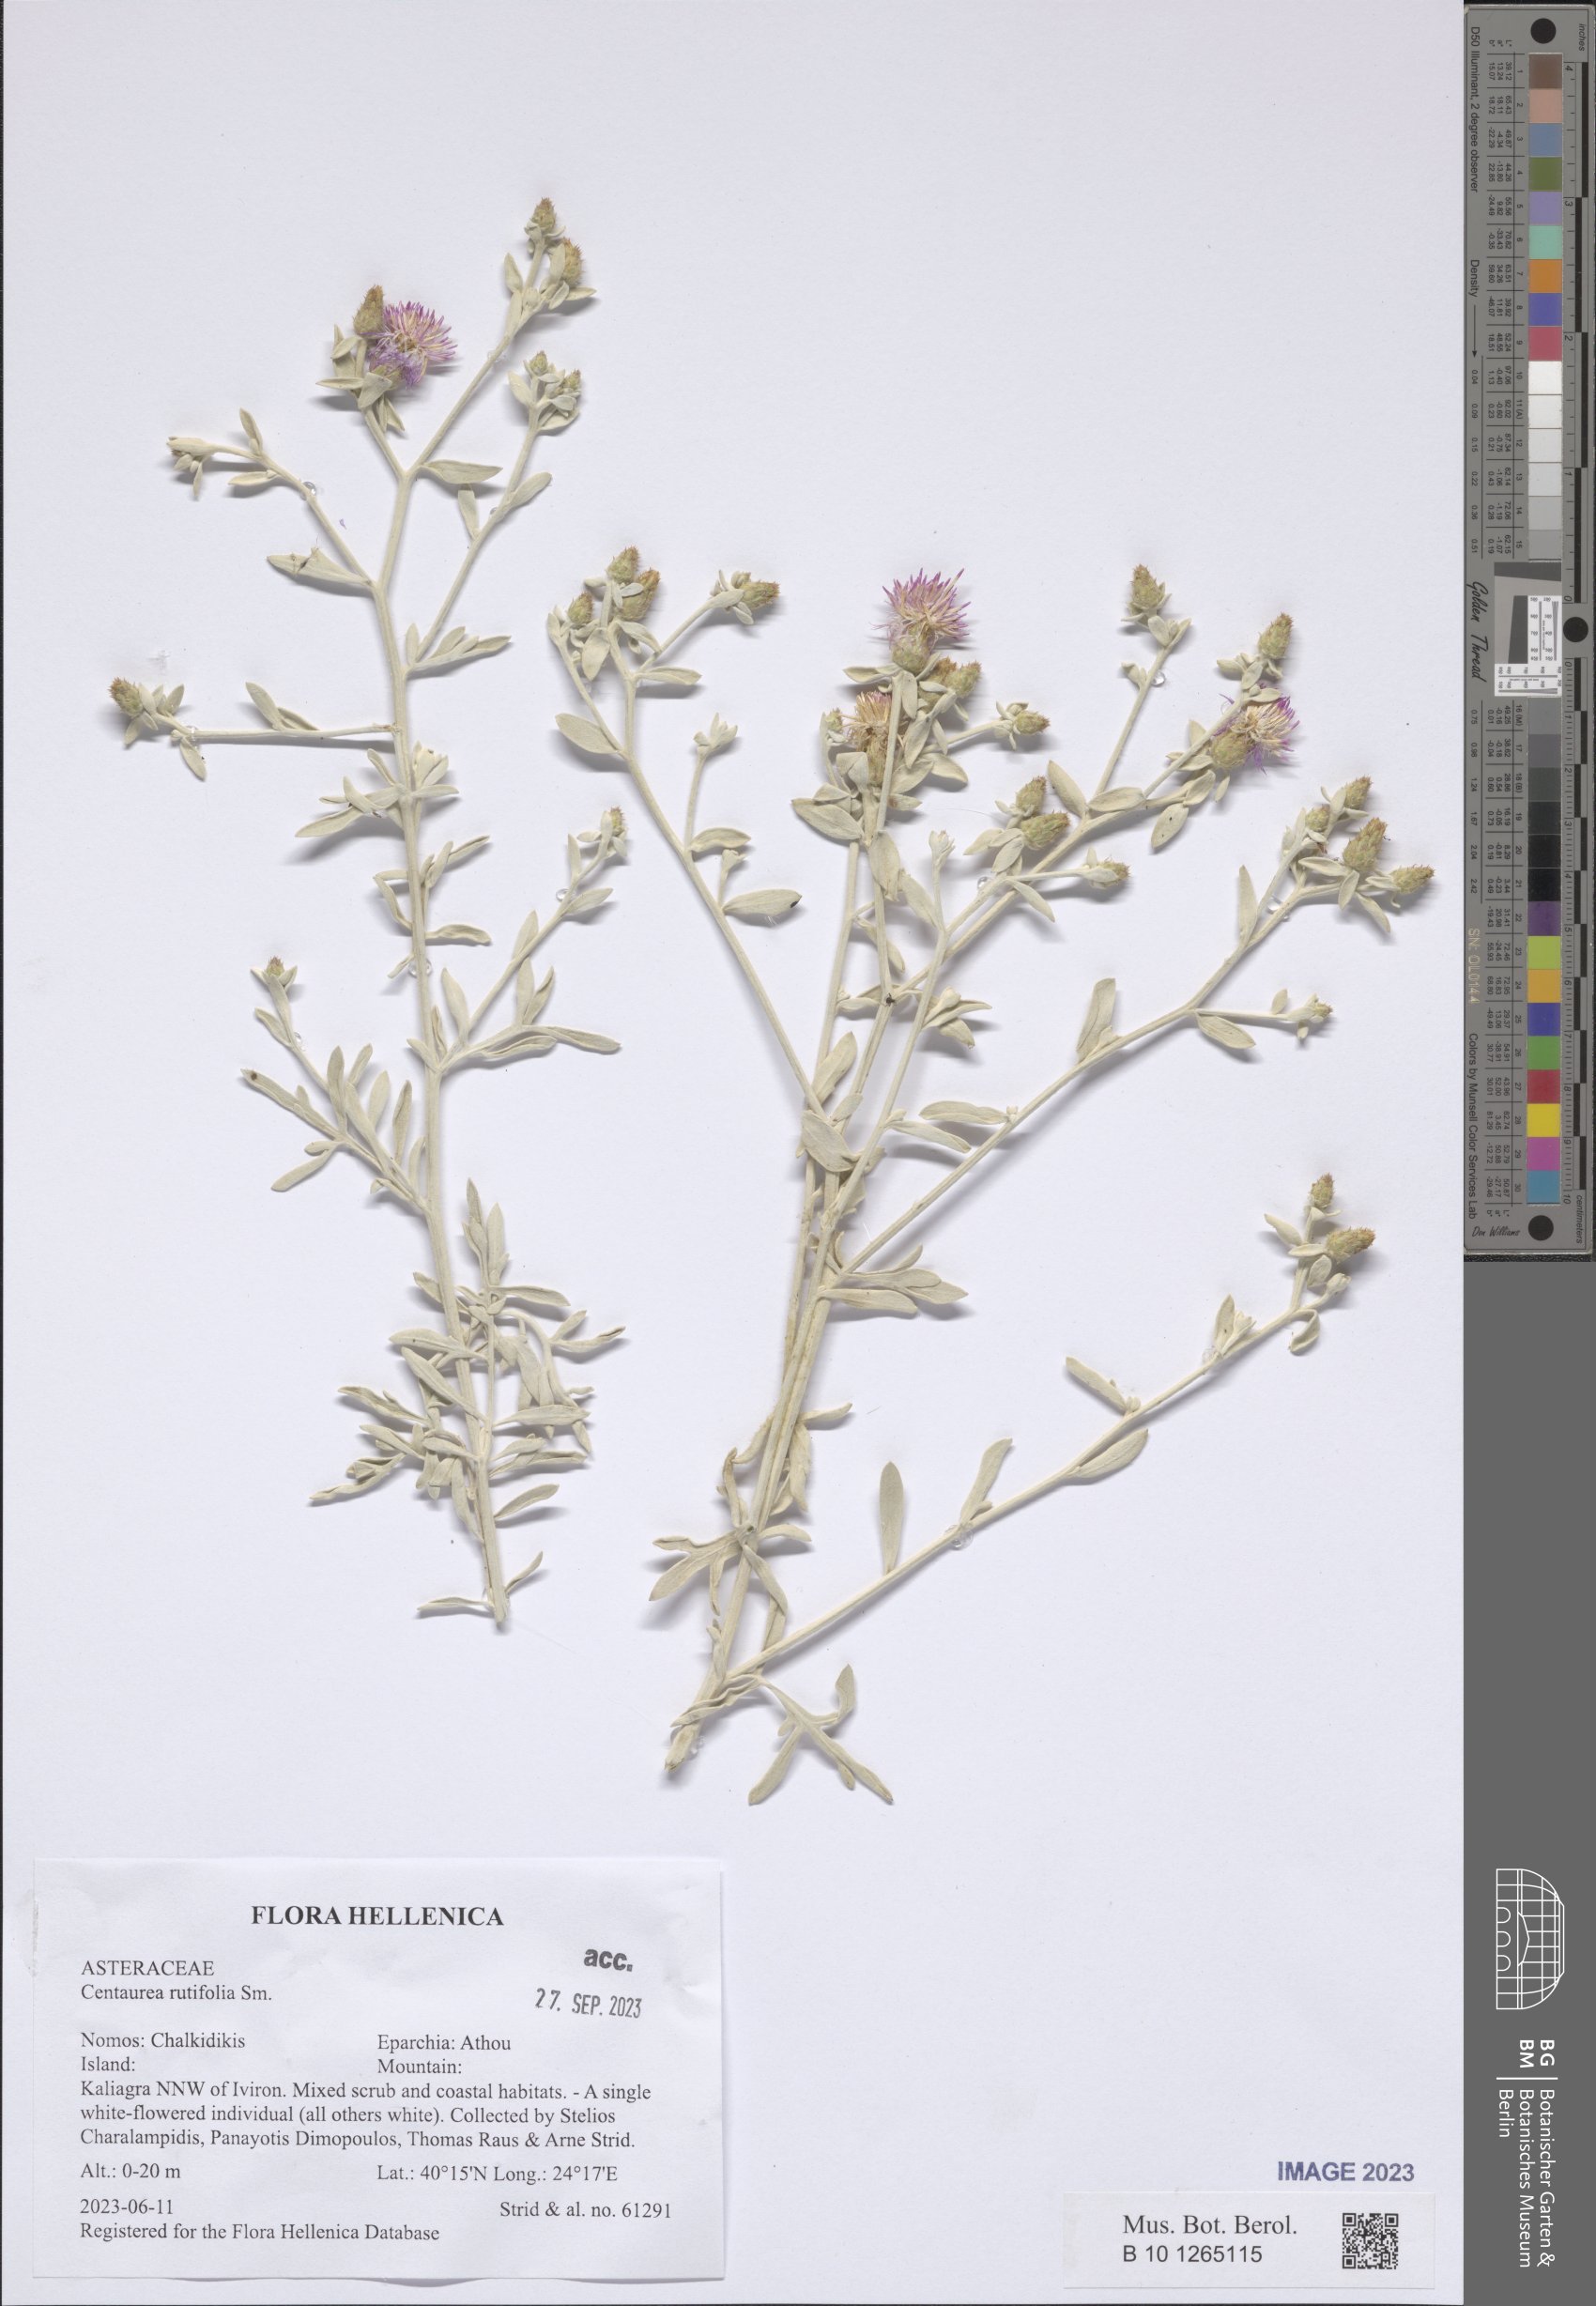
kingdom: Plantae
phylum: Tracheophyta
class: Magnoliopsida
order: Asterales
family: Asteraceae
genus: Centaurea
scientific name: Centaurea rutifolia
